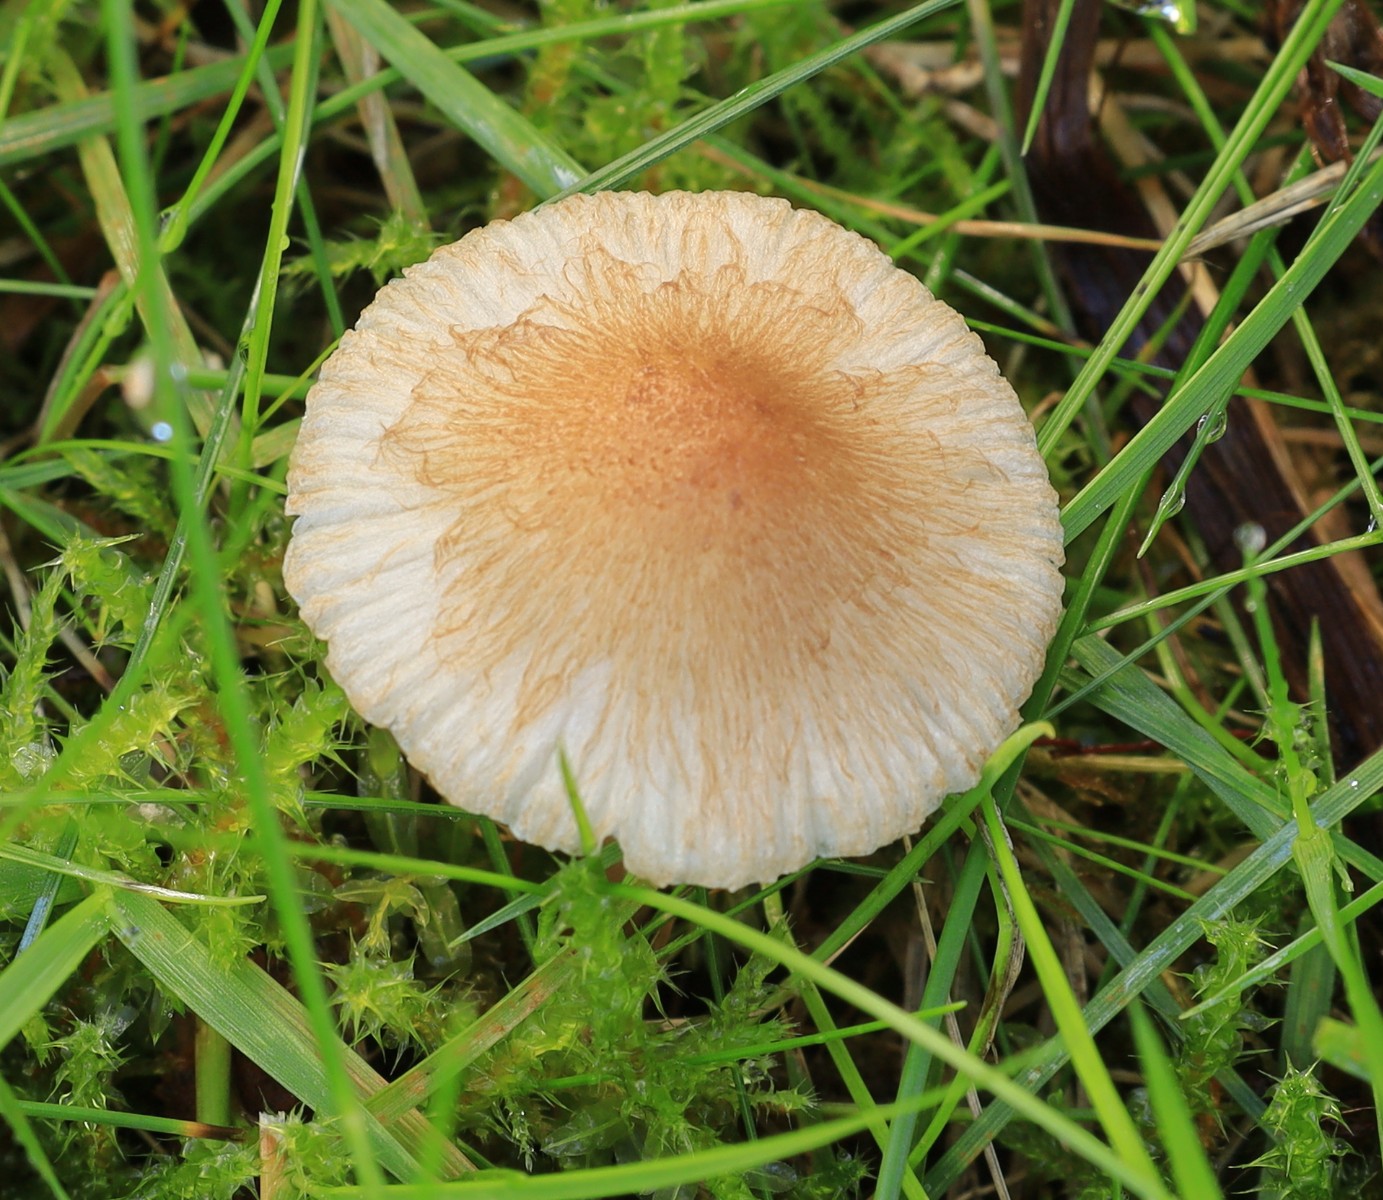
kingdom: Fungi
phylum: Basidiomycota
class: Agaricomycetes
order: Agaricales
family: Inocybaceae
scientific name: Inocybaceae
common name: trævlhatfamilien
